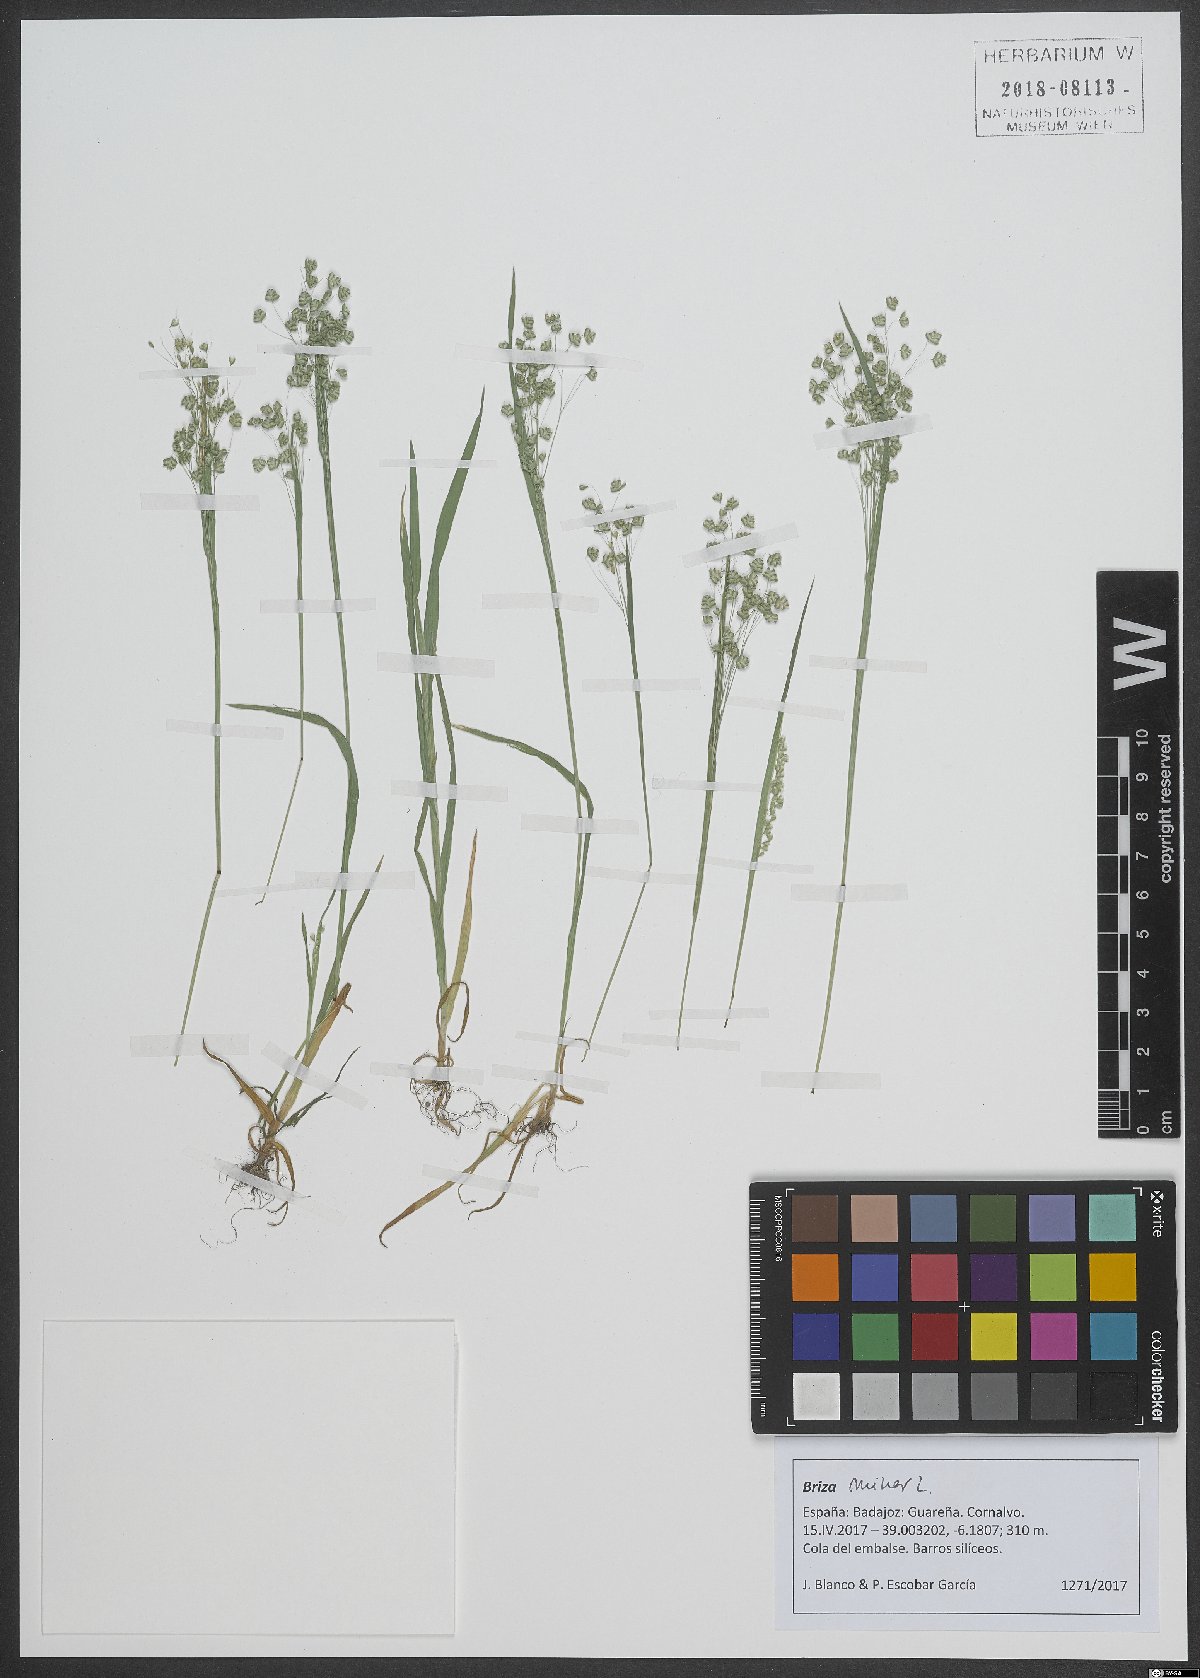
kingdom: Plantae
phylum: Tracheophyta
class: Liliopsida
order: Poales
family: Poaceae
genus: Briza
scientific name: Briza minor
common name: Lesser quaking-grass
